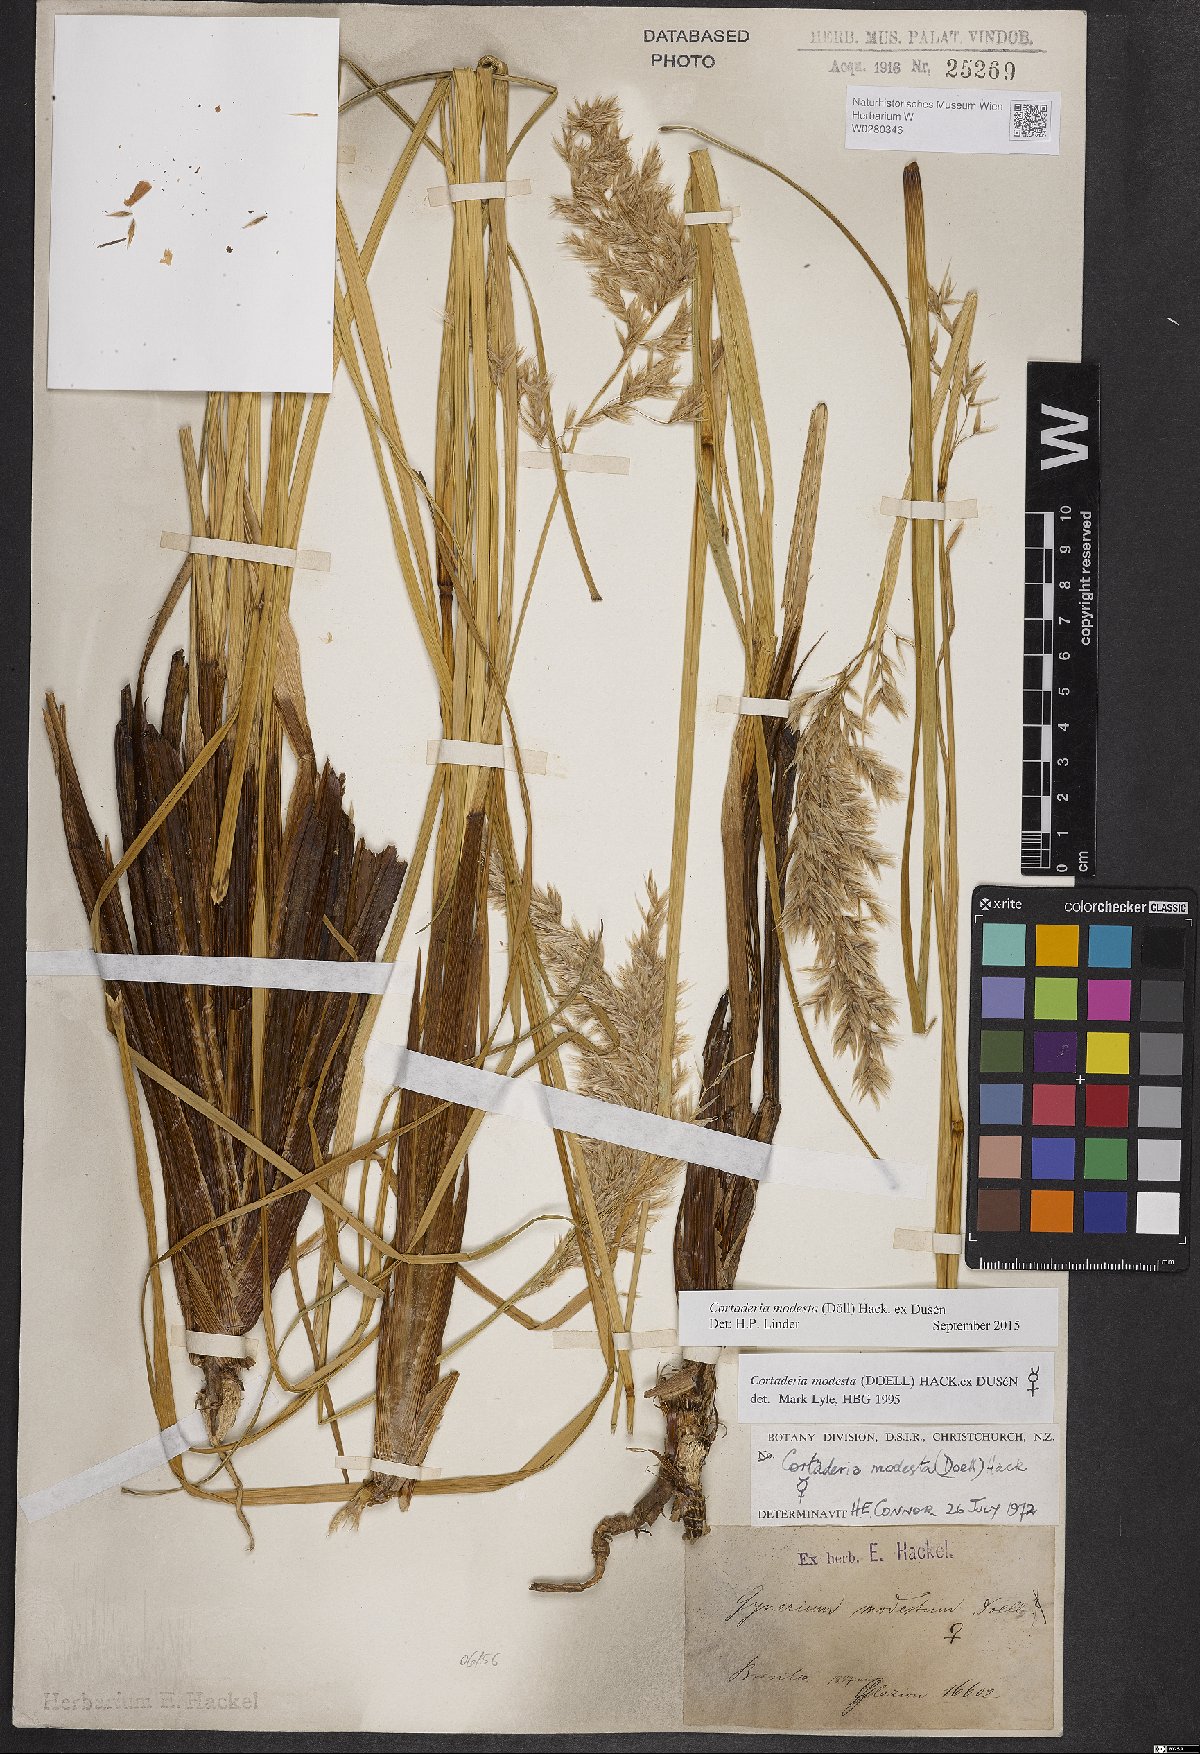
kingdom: Plantae
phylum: Tracheophyta
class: Liliopsida
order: Poales
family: Poaceae
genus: Cortaderia
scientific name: Cortaderia modesta
